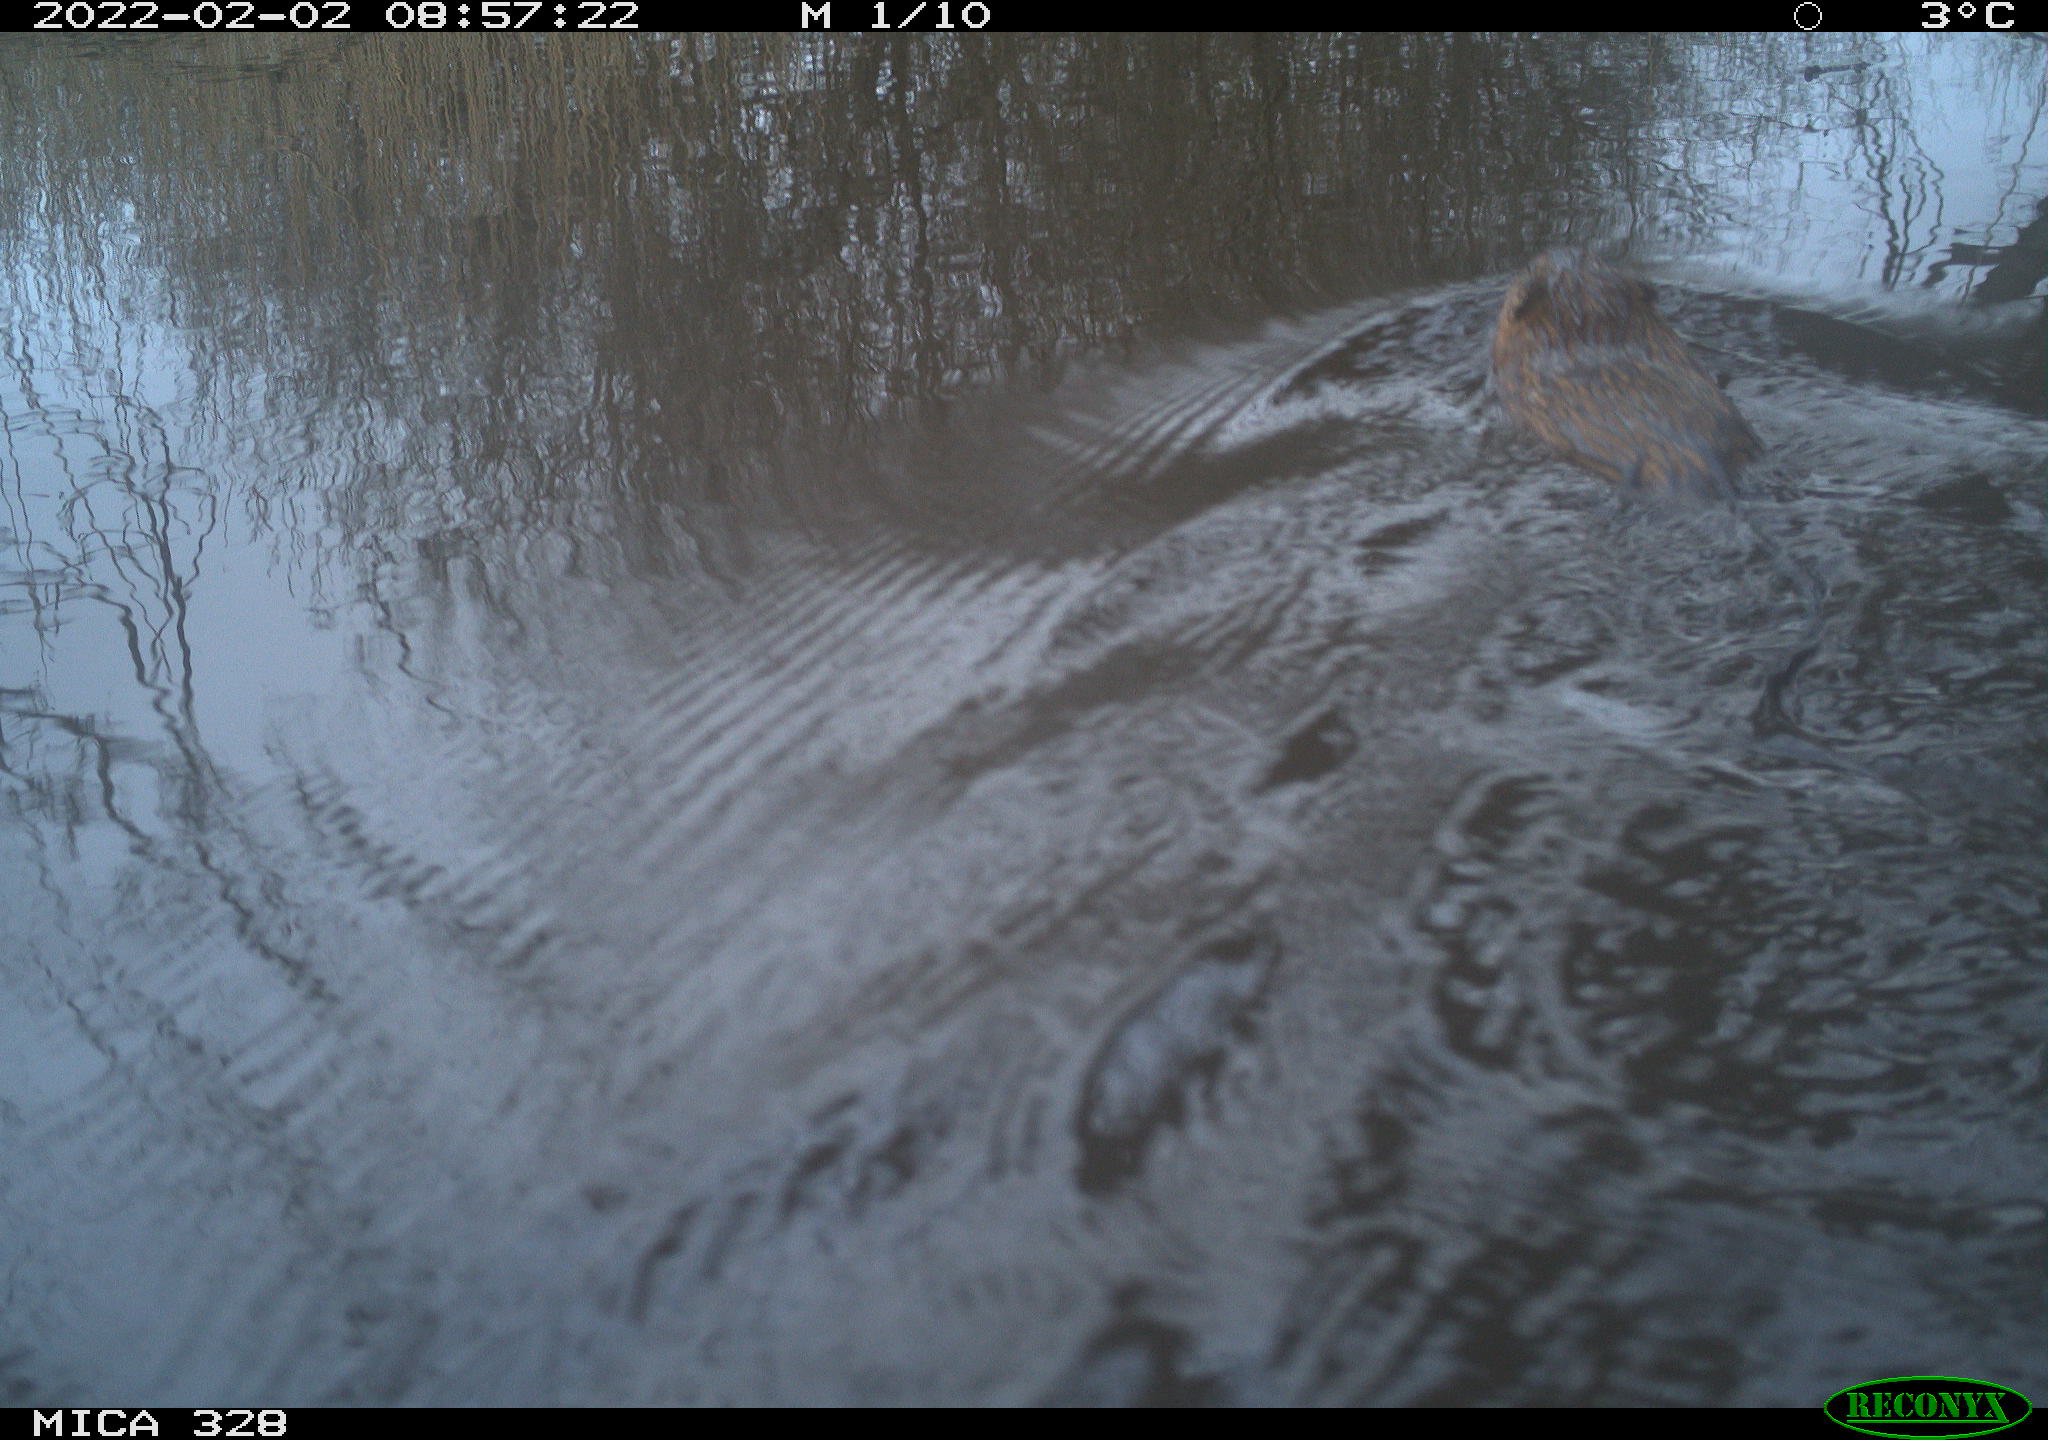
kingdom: Animalia
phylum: Chordata
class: Mammalia
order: Rodentia
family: Cricetidae
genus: Ondatra
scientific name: Ondatra zibethicus
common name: Muskrat
